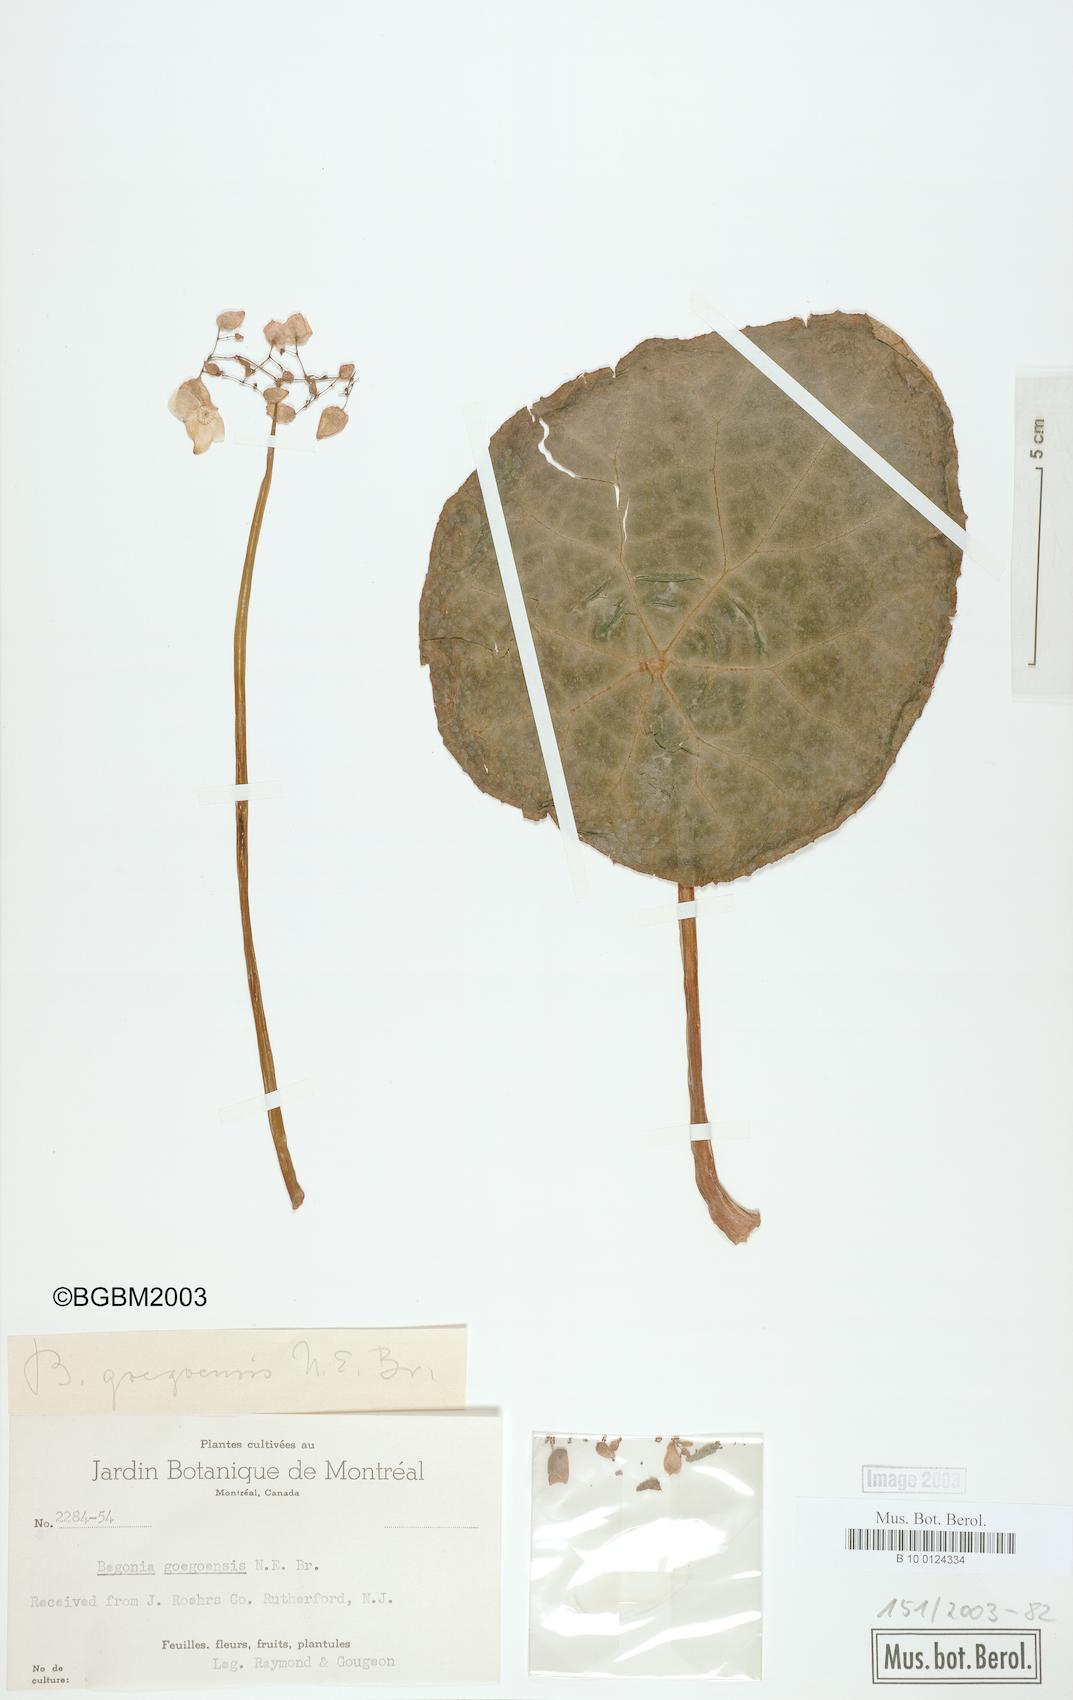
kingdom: Plantae
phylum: Tracheophyta
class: Magnoliopsida
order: Cucurbitales
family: Begoniaceae
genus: Begonia
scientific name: Begonia goegoensis
